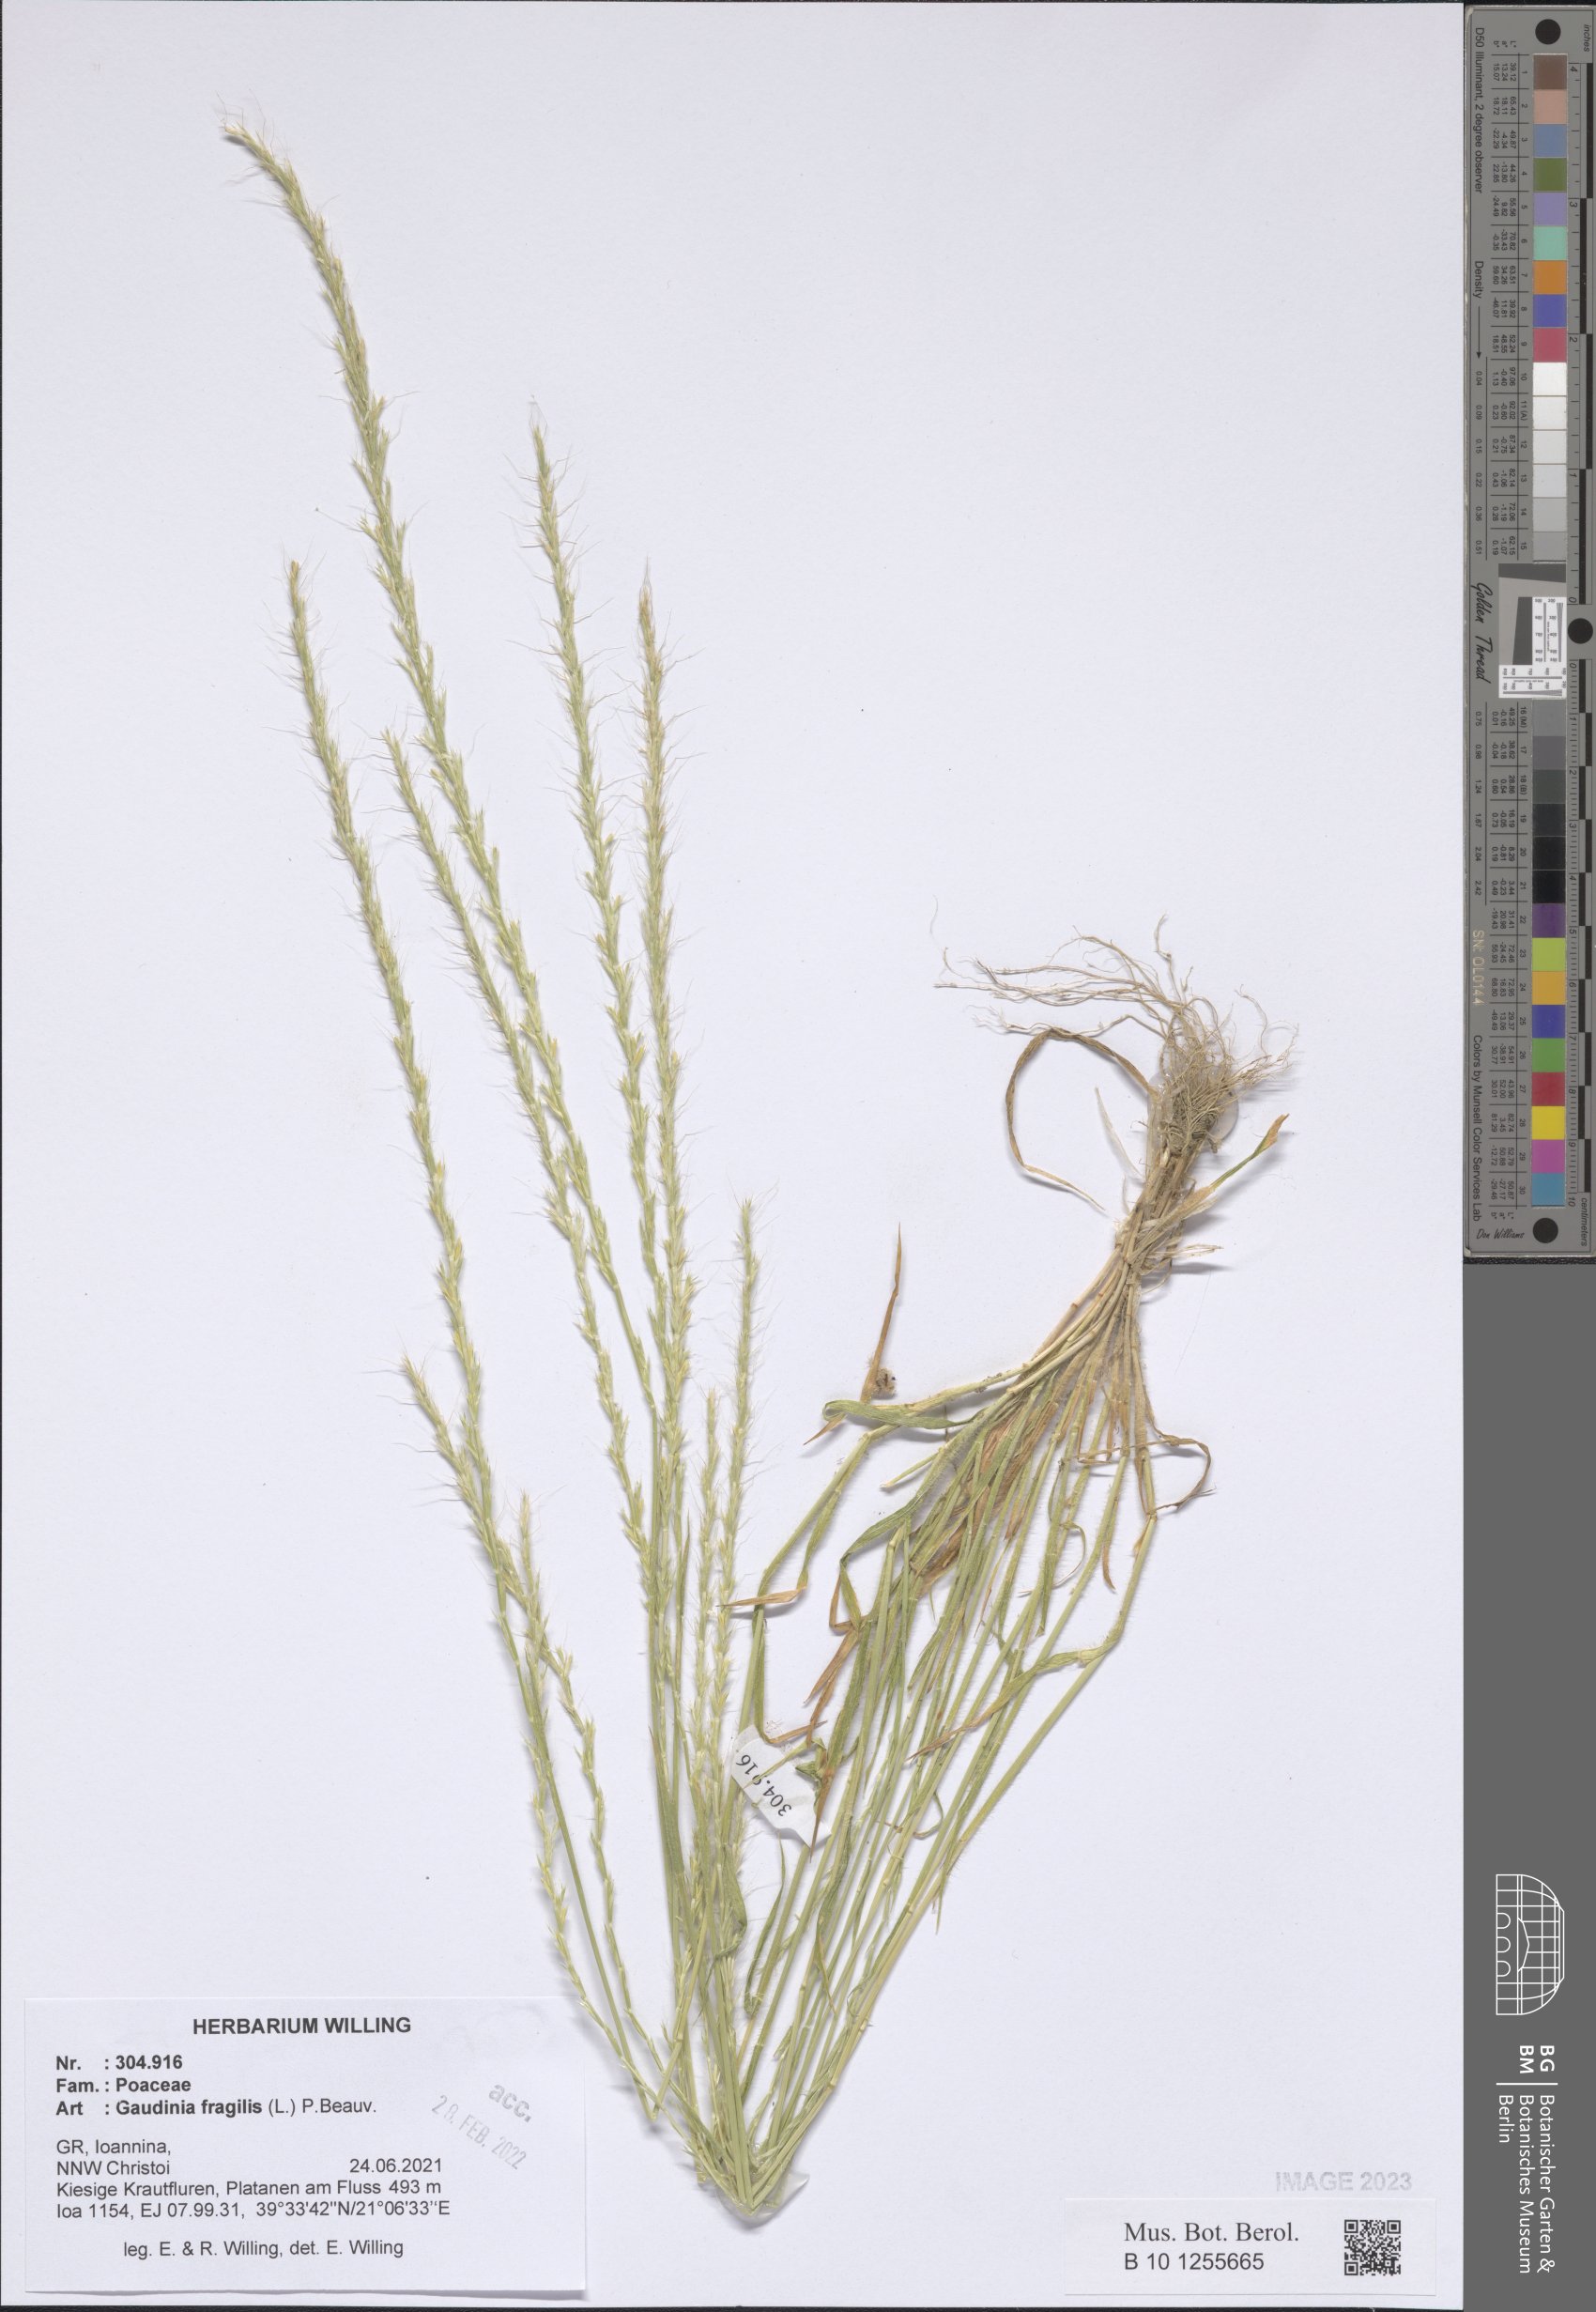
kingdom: Plantae
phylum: Tracheophyta
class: Liliopsida
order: Poales
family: Poaceae
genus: Gaudinia
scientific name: Gaudinia fragilis
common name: French oat-grass
